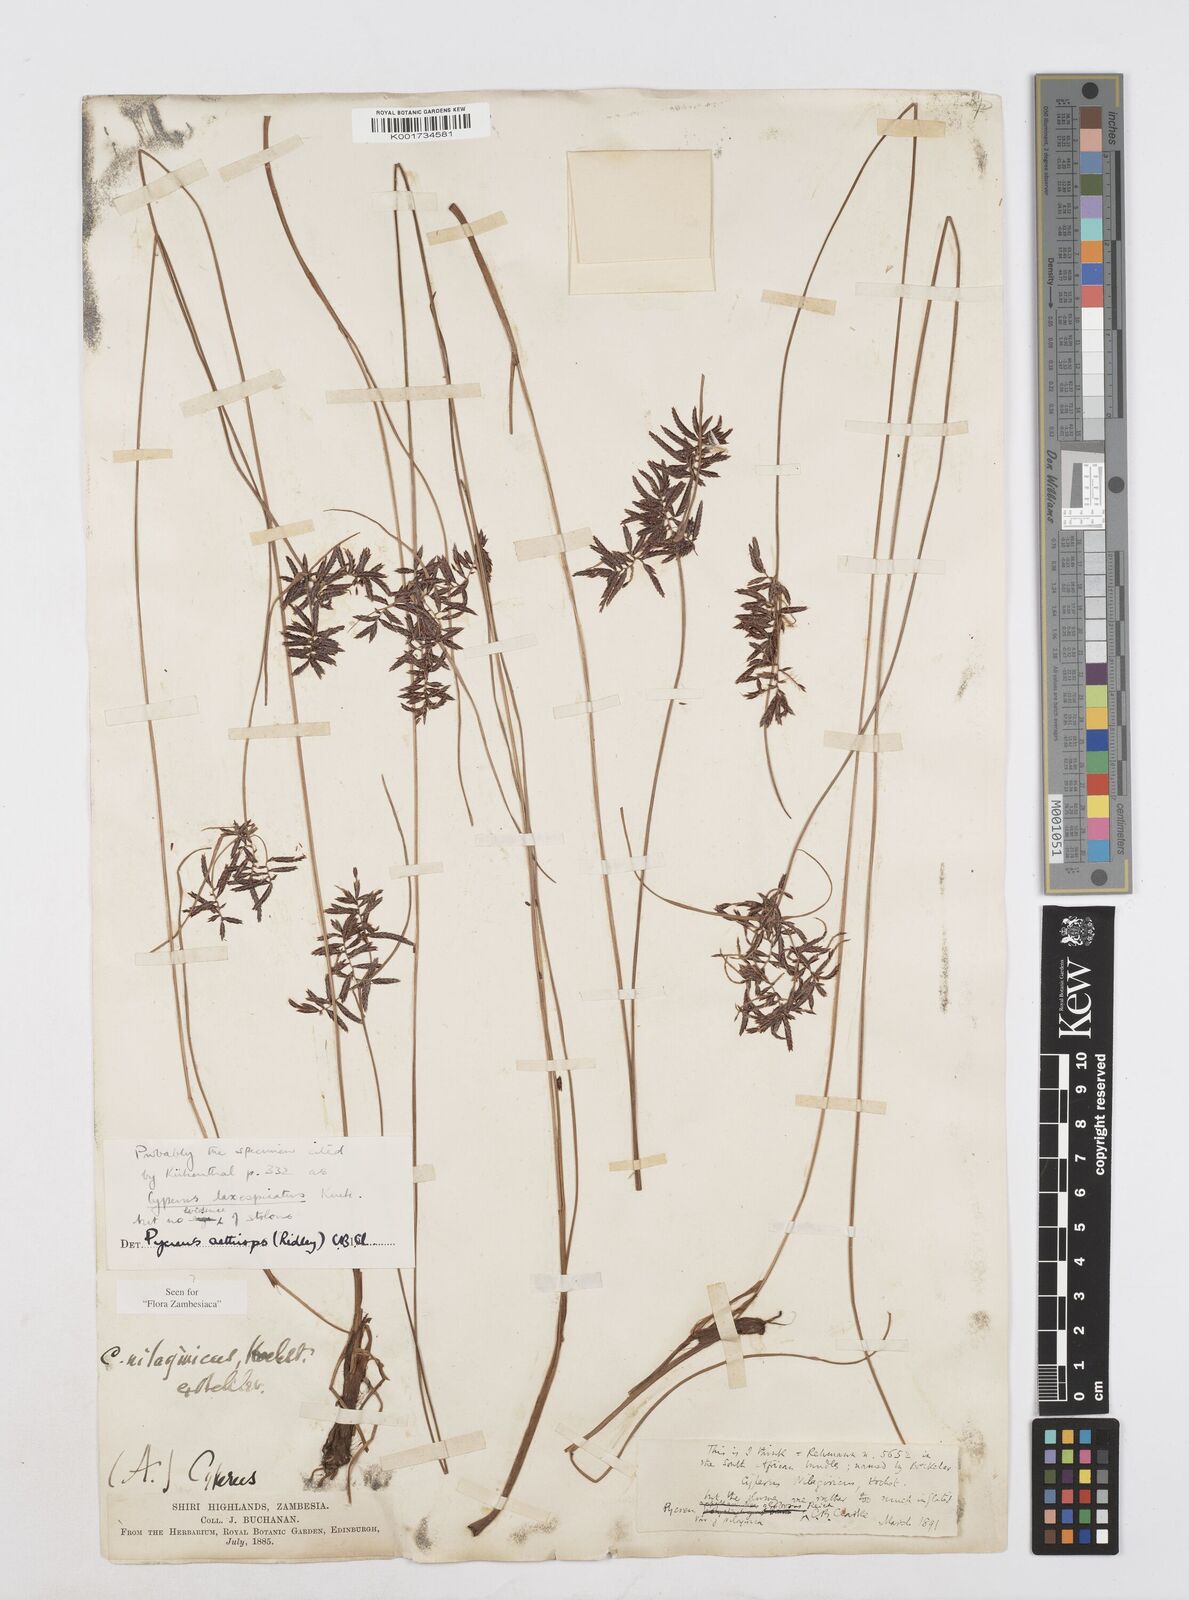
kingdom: Plantae
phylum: Tracheophyta
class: Liliopsida
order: Poales
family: Cyperaceae
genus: Cyperus
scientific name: Cyperus aethiops
